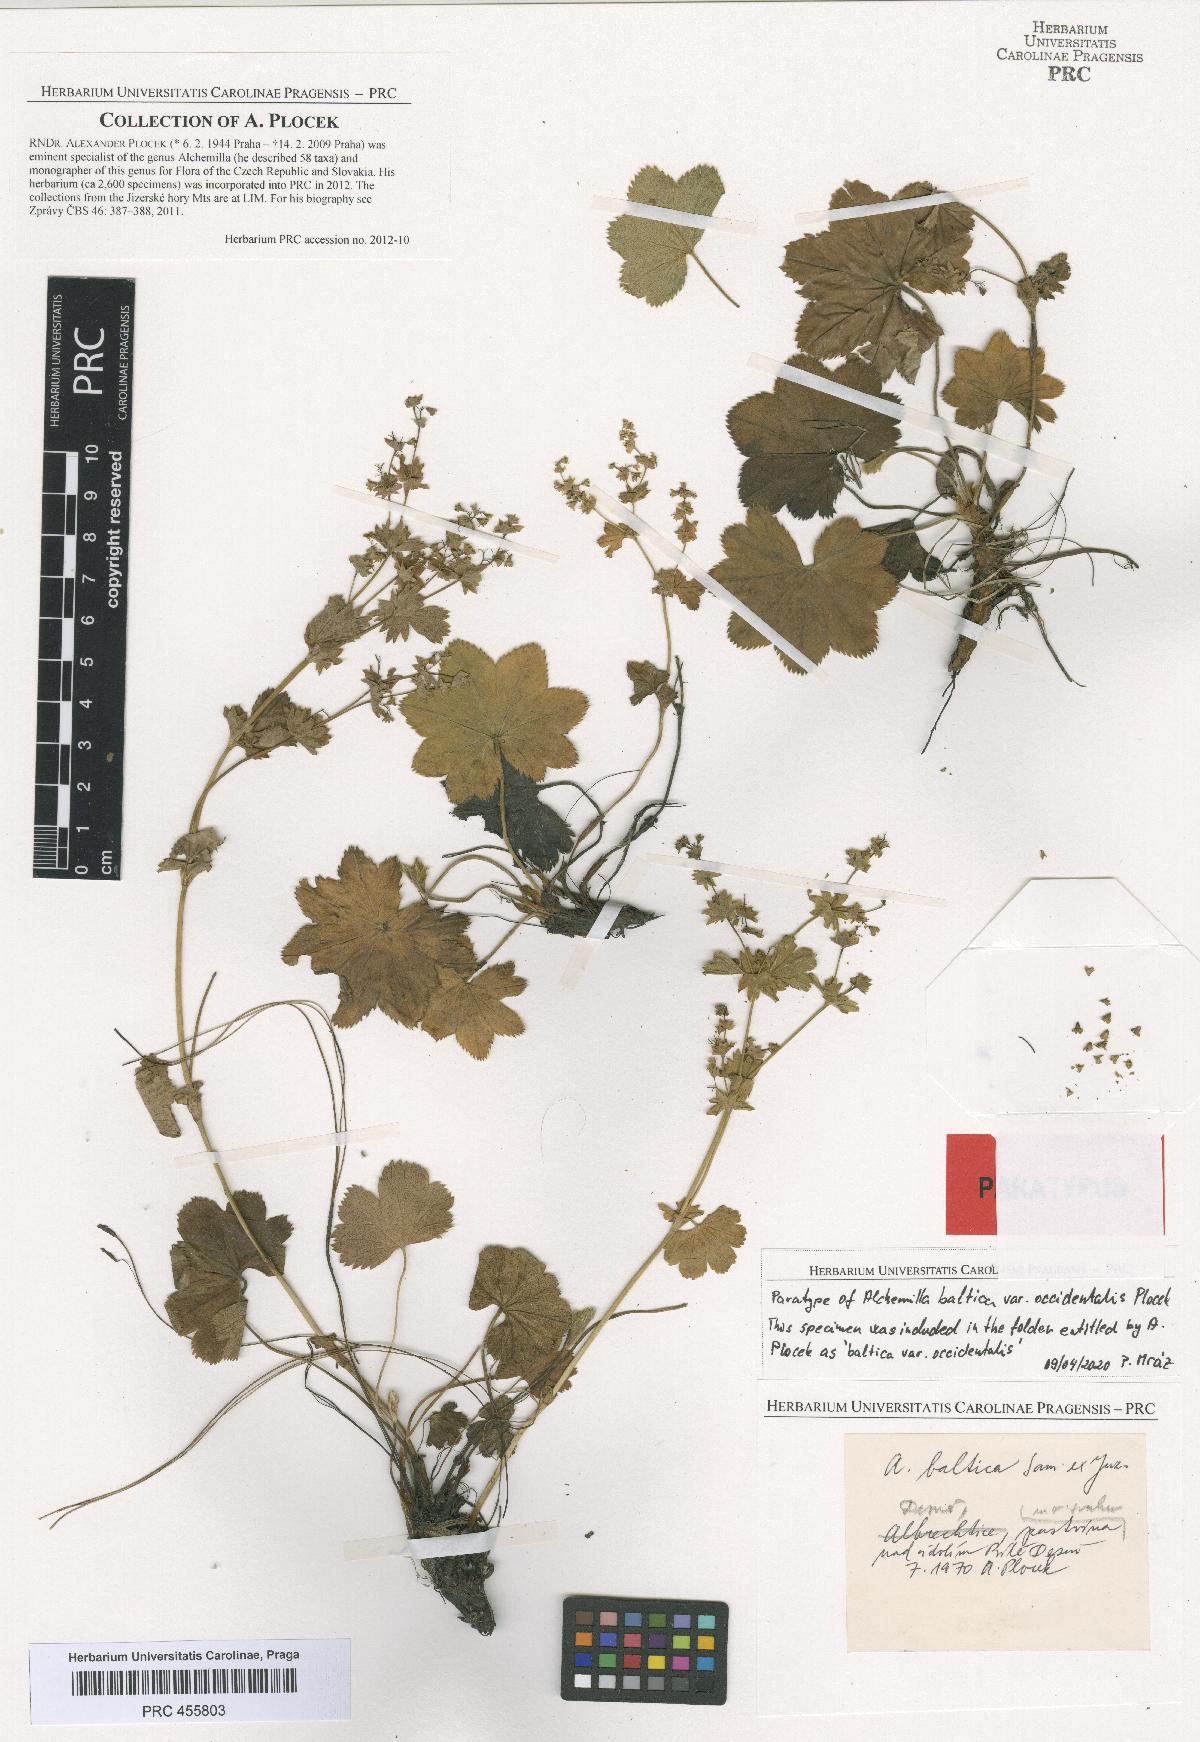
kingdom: Plantae
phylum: Tracheophyta
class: Magnoliopsida
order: Rosales
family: Rosaceae
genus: Alchemilla
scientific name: Alchemilla corcontica
